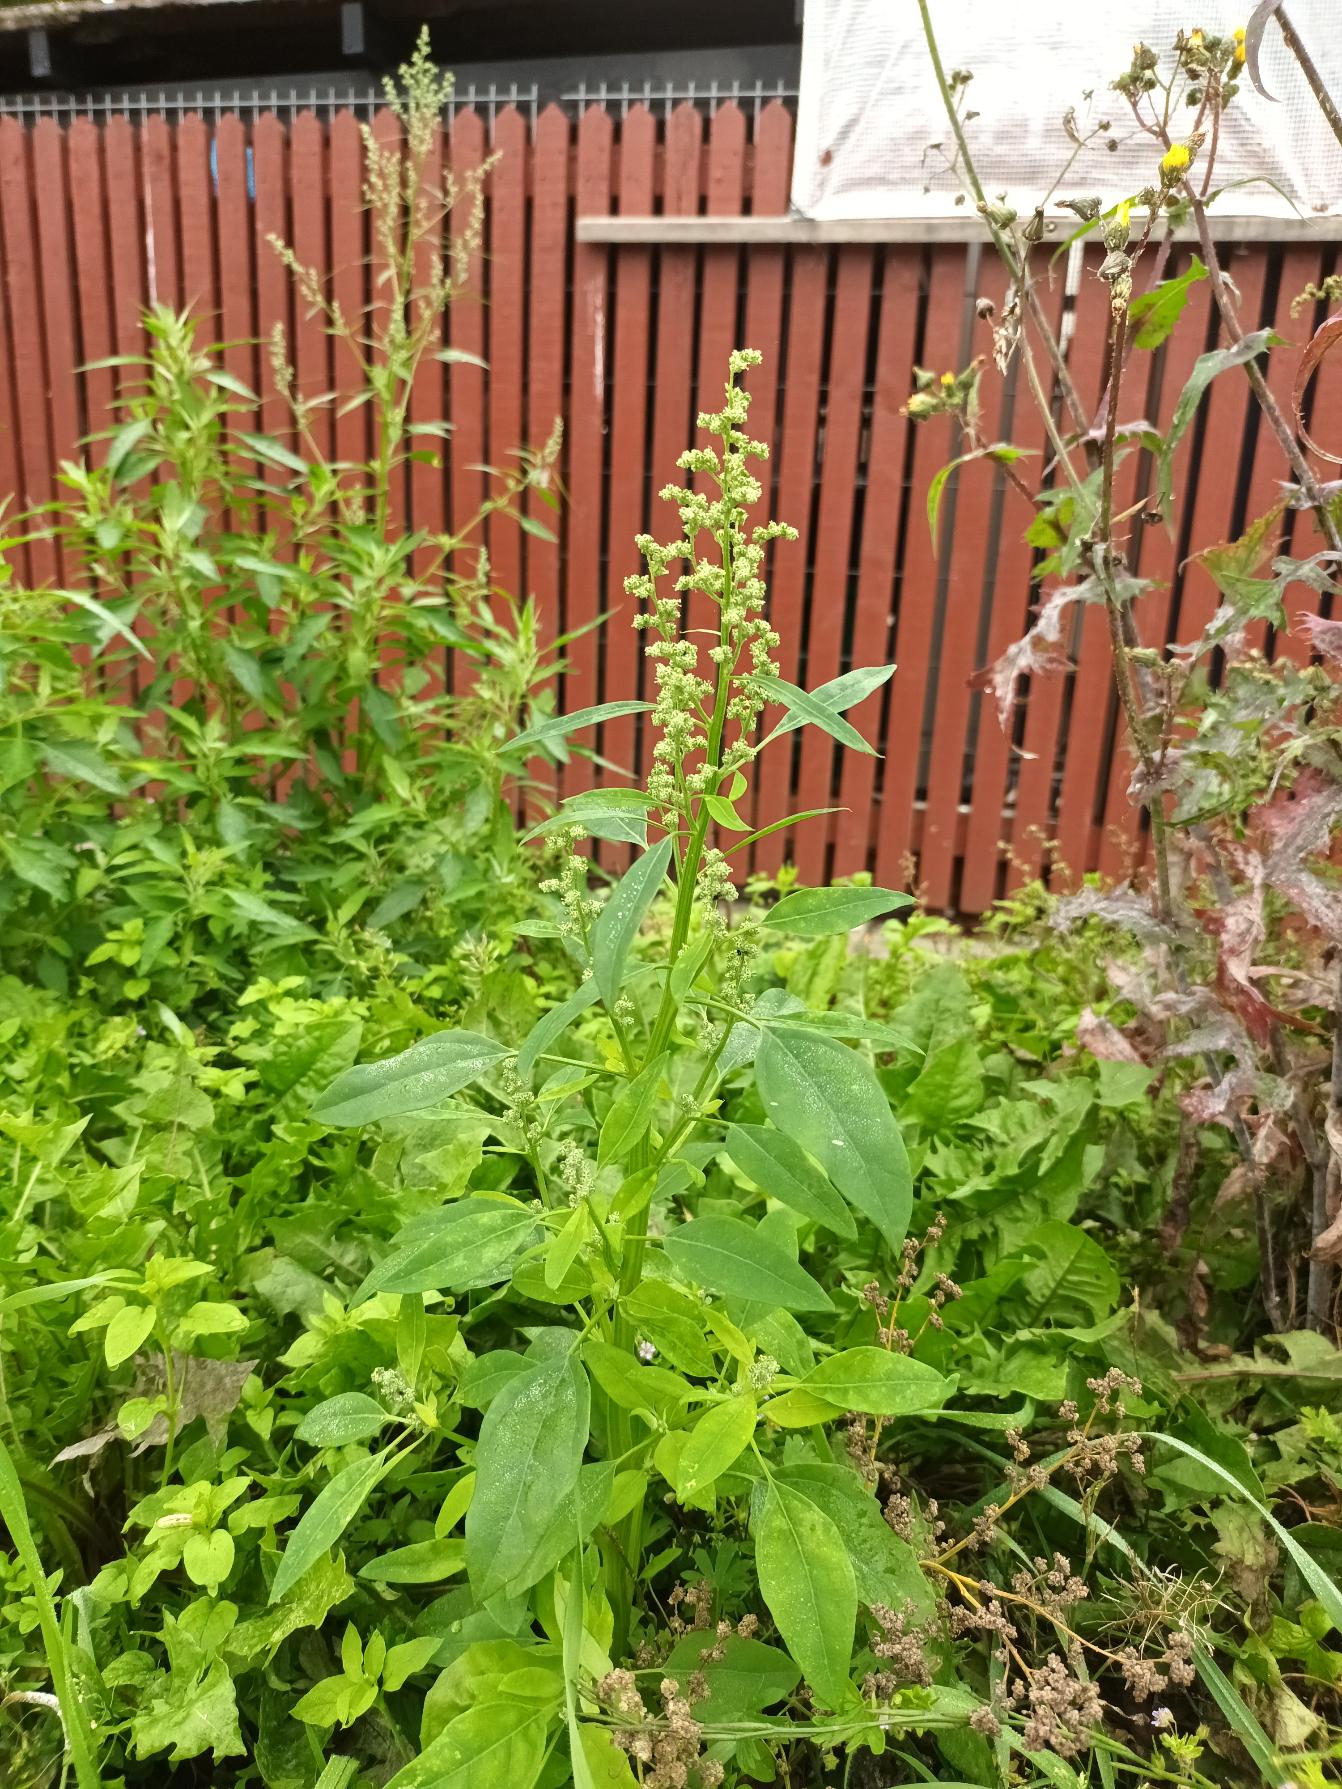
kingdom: Plantae
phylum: Tracheophyta
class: Magnoliopsida
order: Caryophyllales
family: Amaranthaceae
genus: Chenopodium
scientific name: Chenopodium album
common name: Hvidmelet gåsefod
